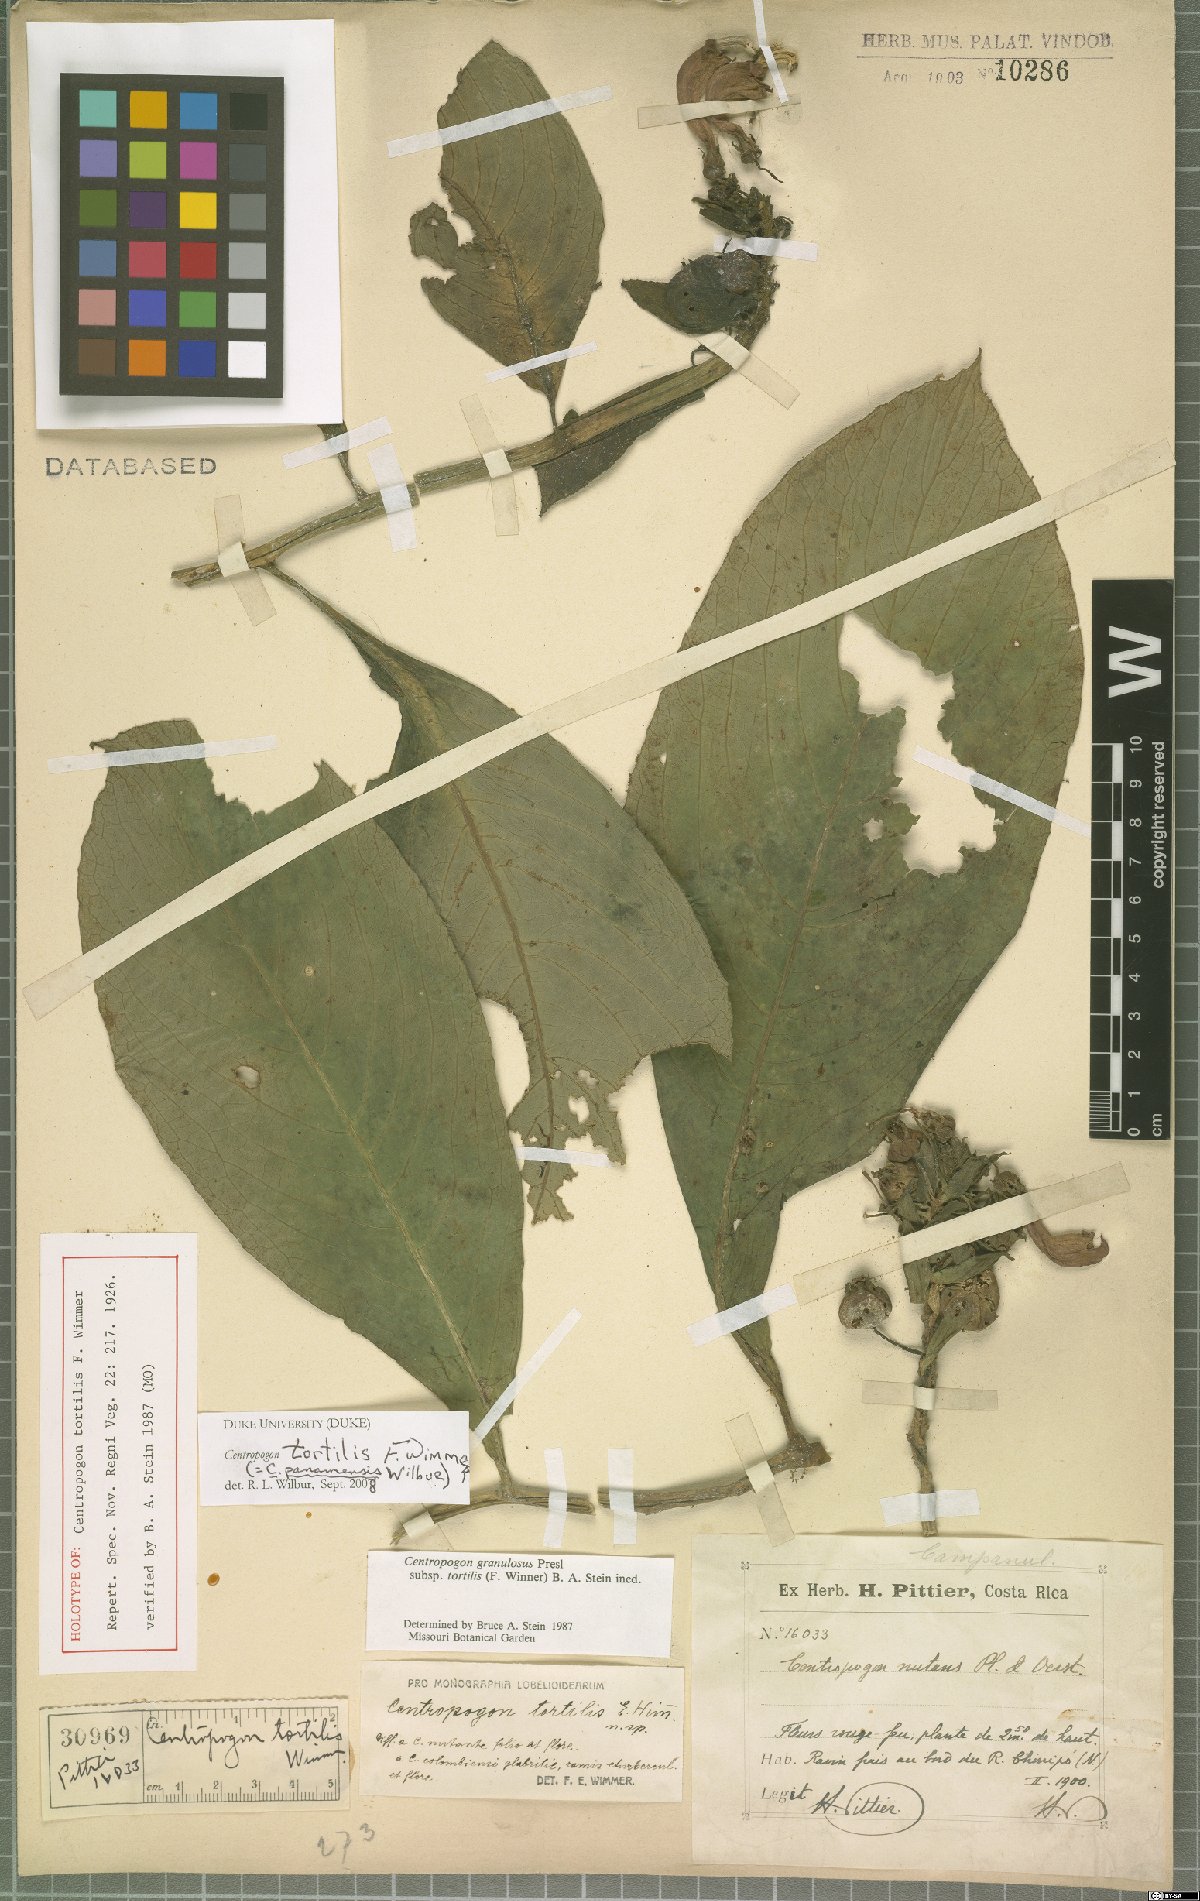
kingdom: Plantae
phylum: Tracheophyta
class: Magnoliopsida
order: Asterales
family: Campanulaceae
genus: Centropogon
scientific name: Centropogon tortilis
